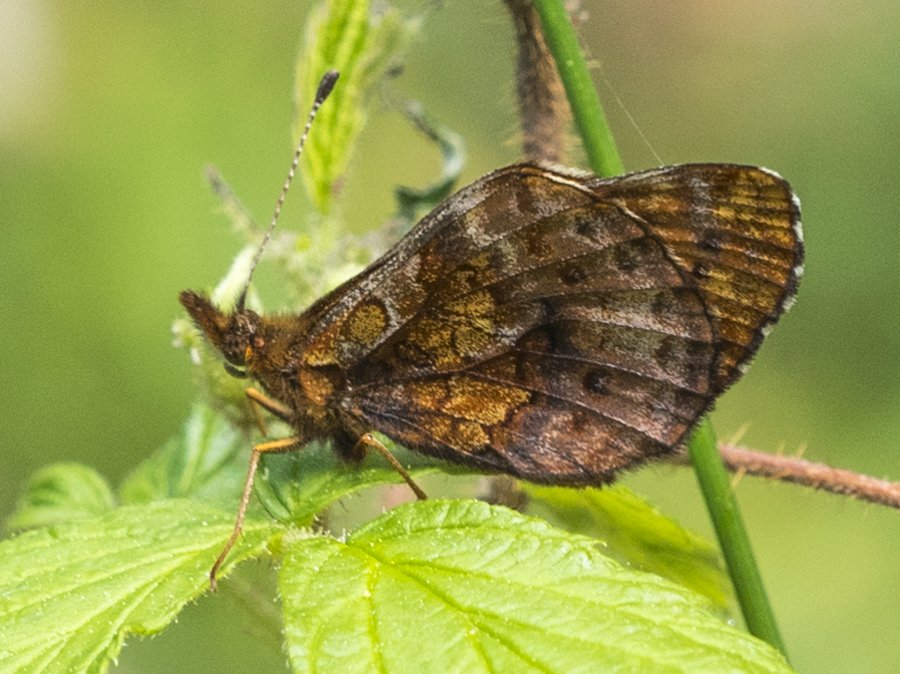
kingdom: Animalia
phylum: Arthropoda
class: Insecta
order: Lepidoptera
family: Nymphalidae
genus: Clossiana
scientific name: Clossiana toddi
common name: Meadow Fritillary
